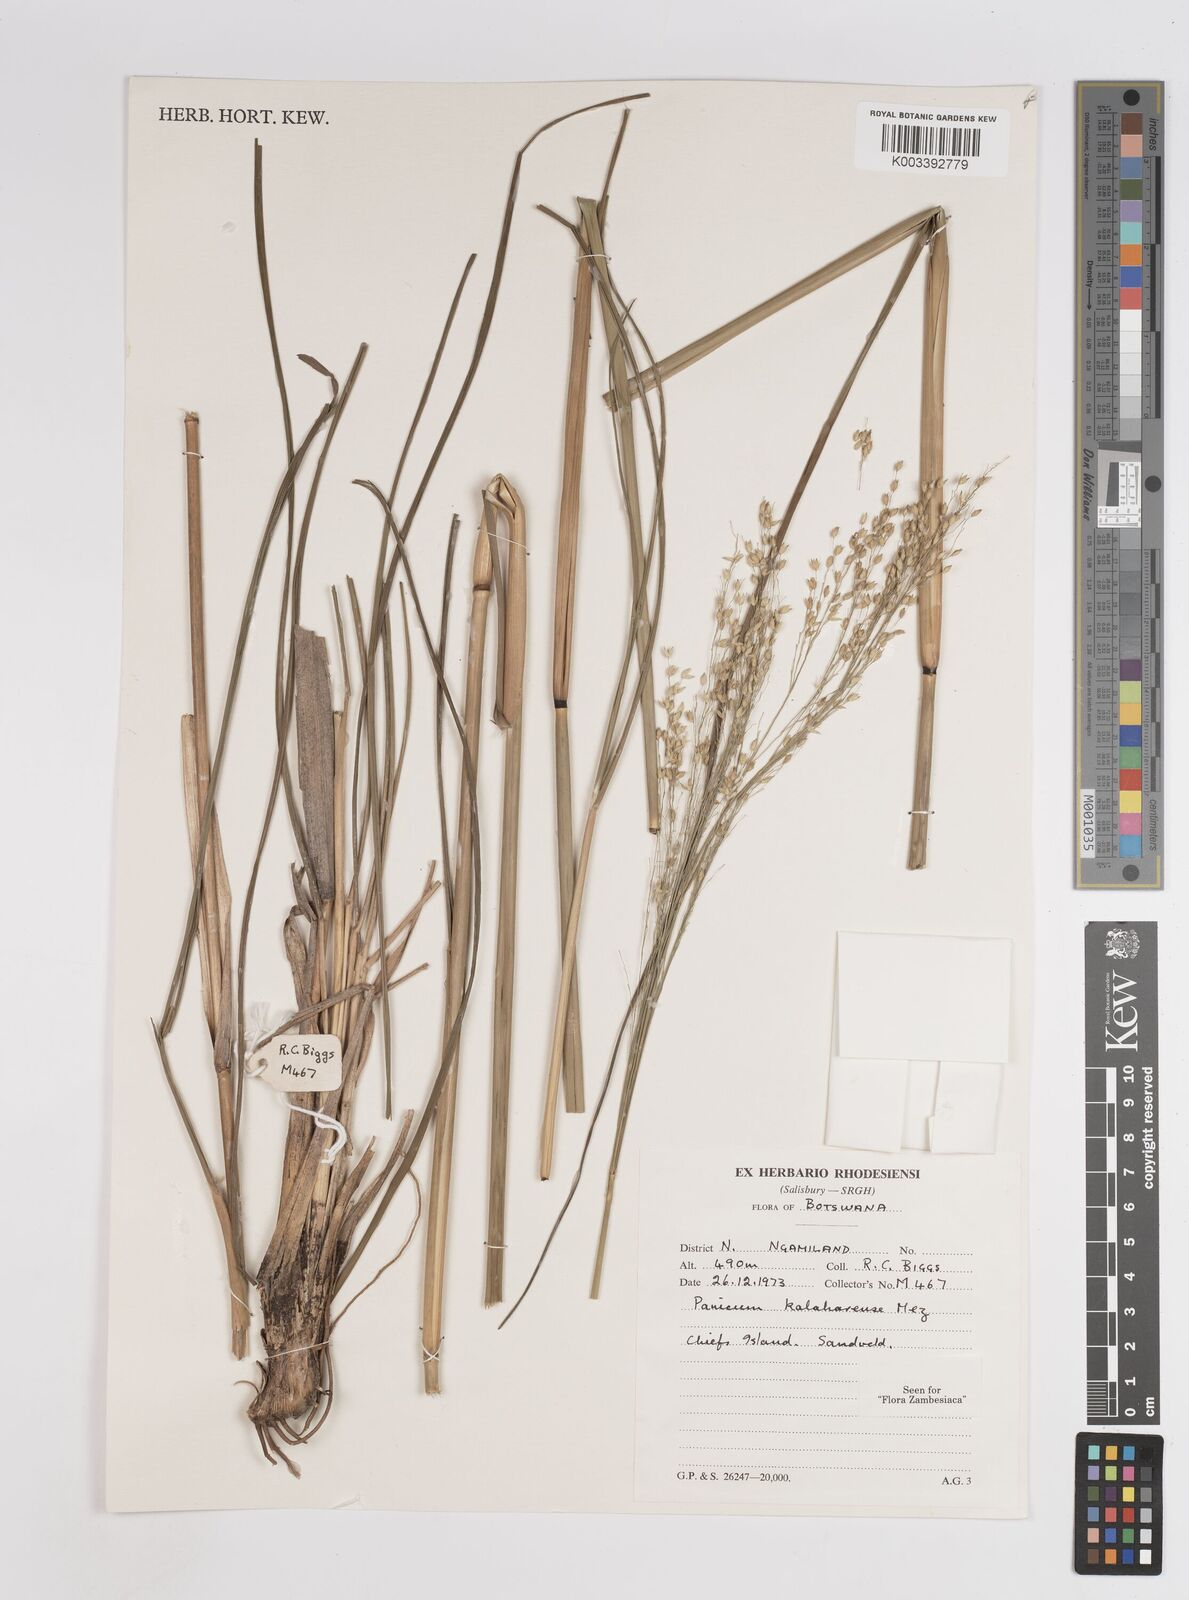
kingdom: Plantae
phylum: Tracheophyta
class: Liliopsida
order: Poales
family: Poaceae
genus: Panicum
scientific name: Panicum kalaharense
